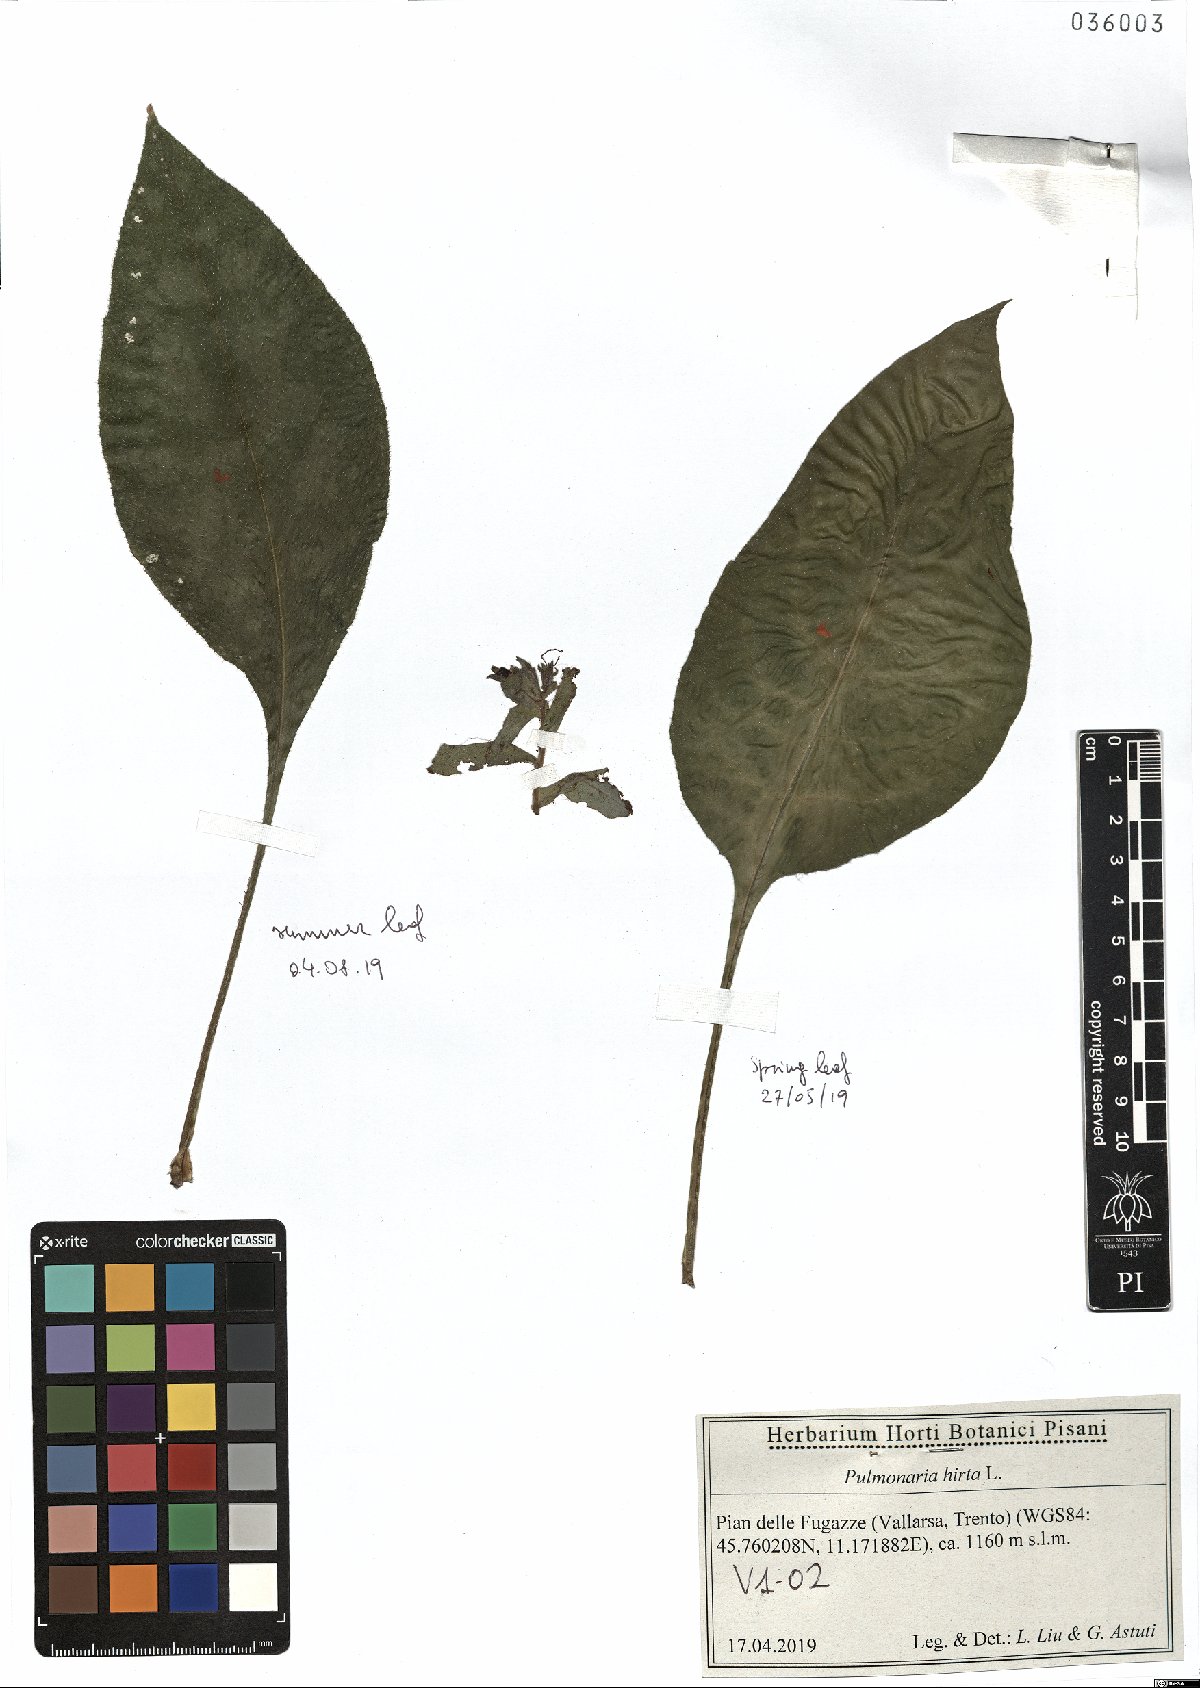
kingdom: Plantae
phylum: Tracheophyta
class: Magnoliopsida
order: Boraginales
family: Boraginaceae
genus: Pulmonaria
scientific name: Pulmonaria hirta
